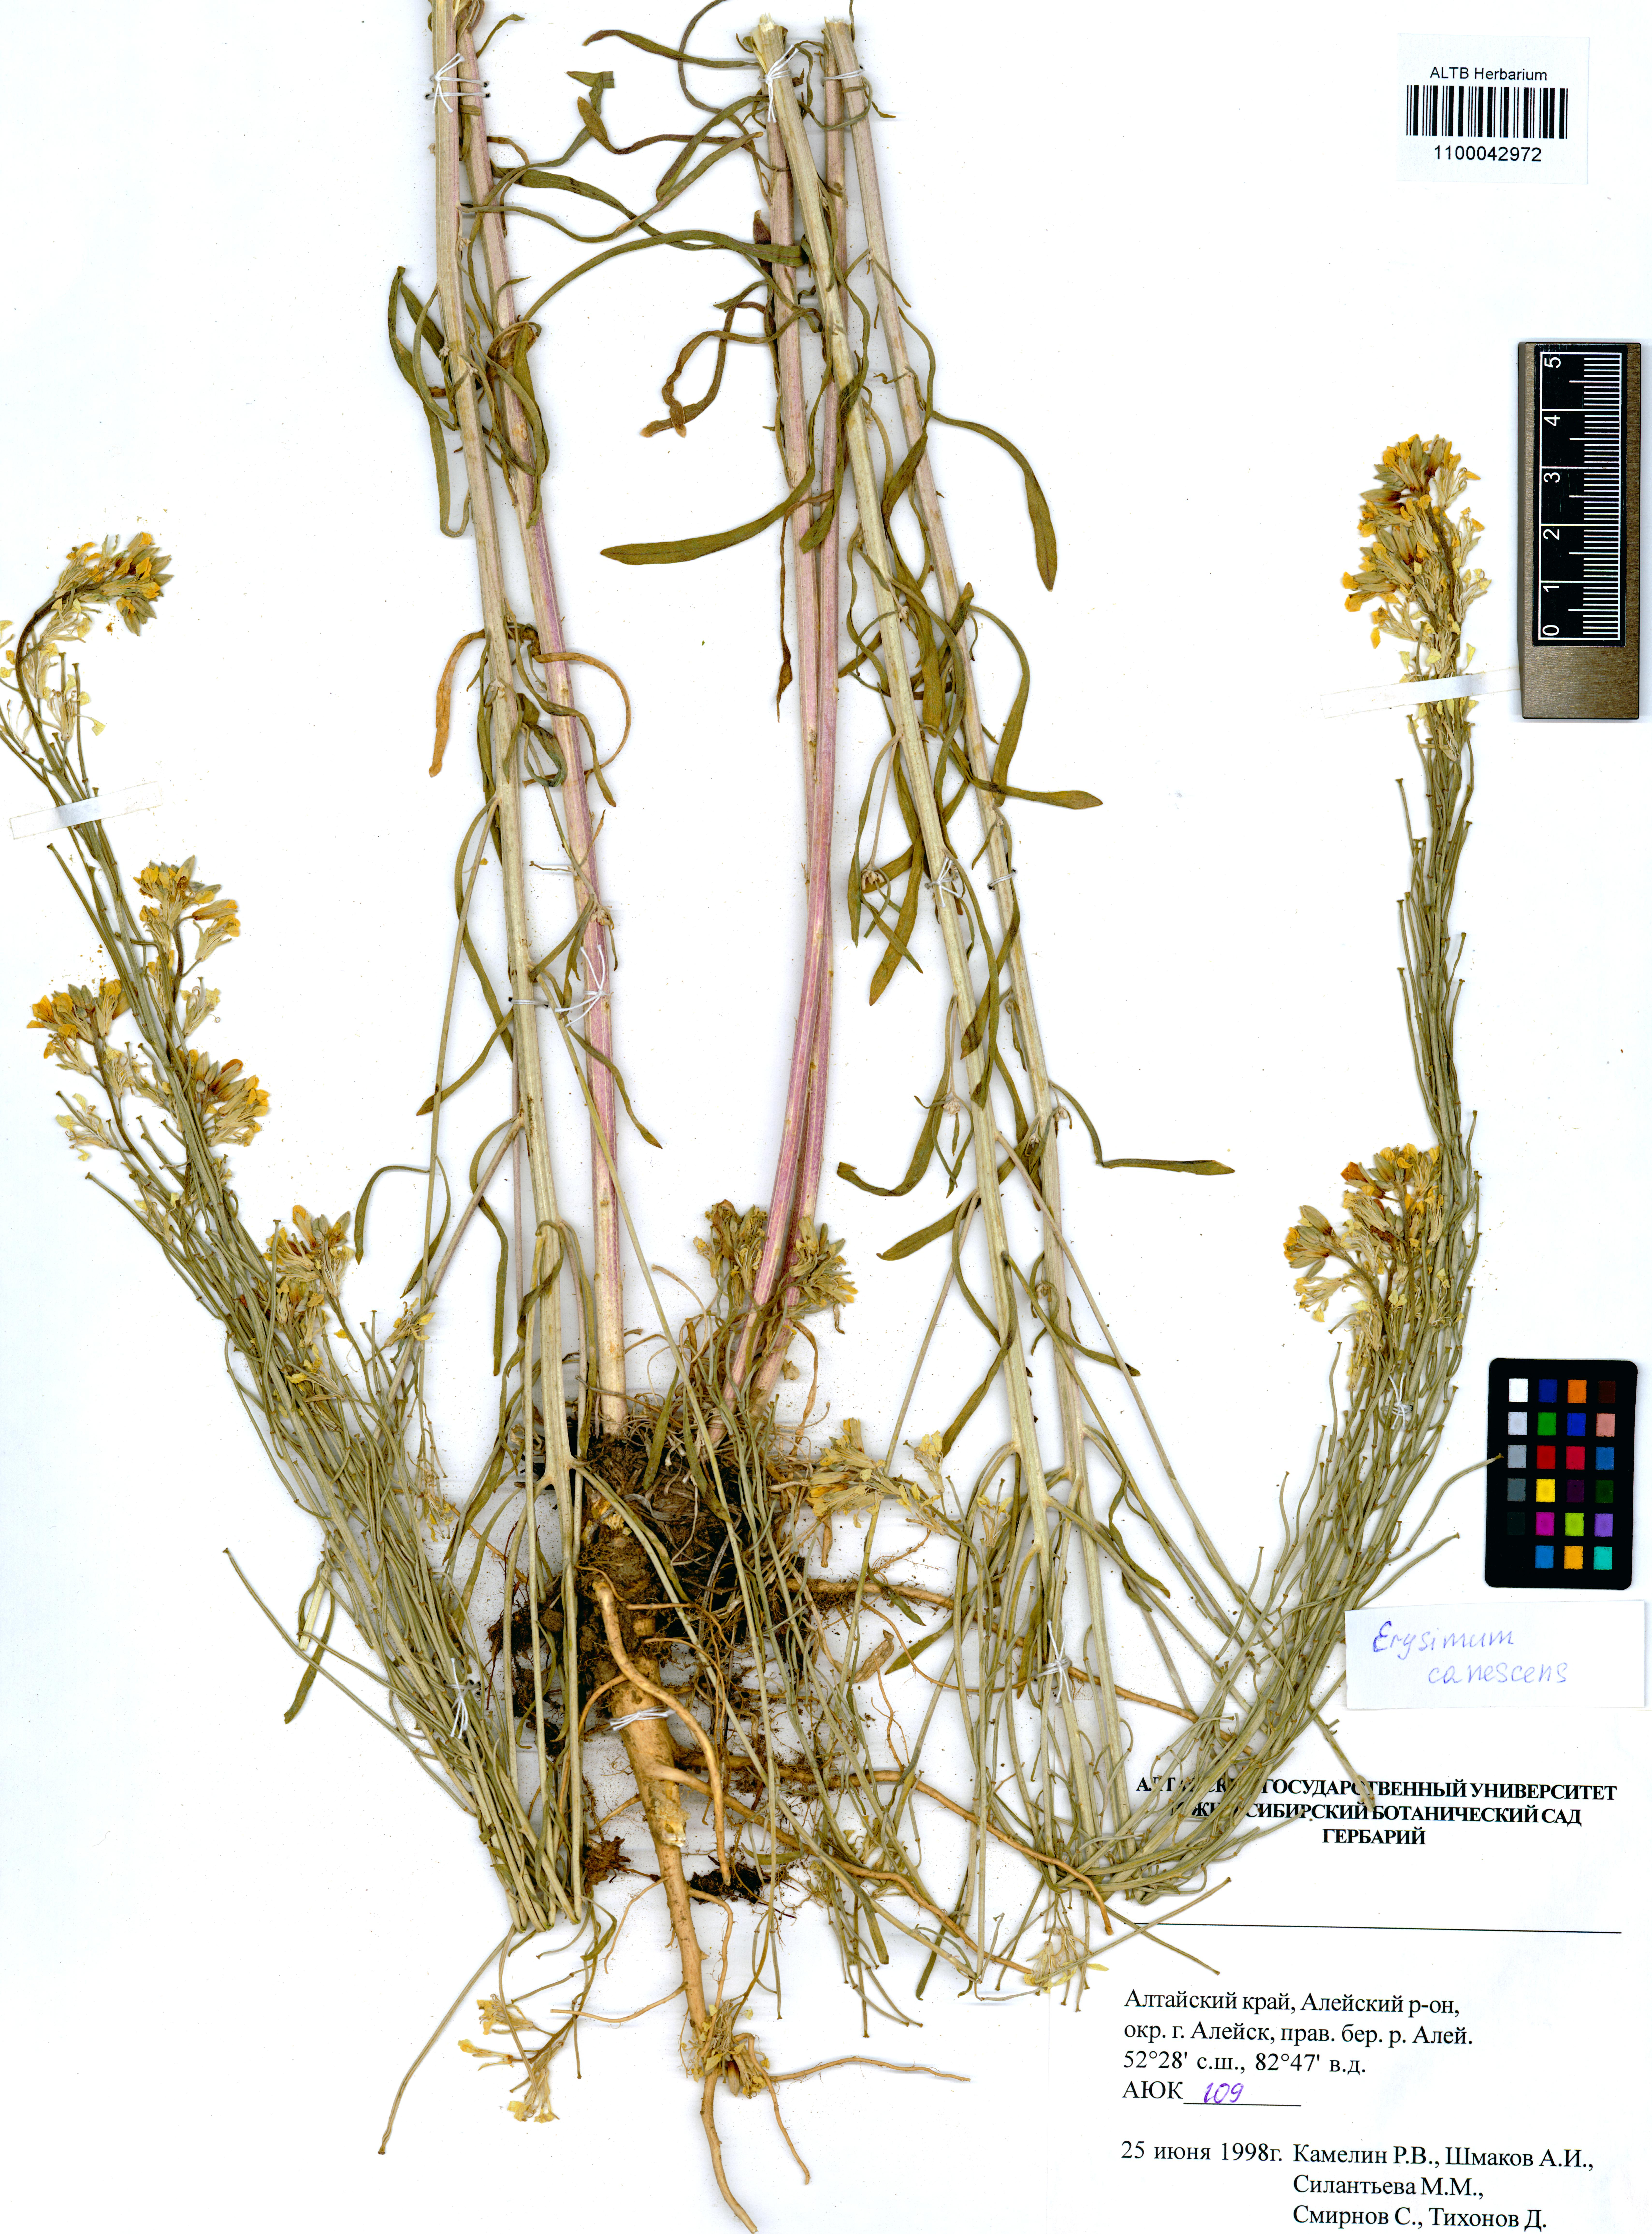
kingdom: Plantae
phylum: Tracheophyta
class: Magnoliopsida
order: Brassicales
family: Brassicaceae
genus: Erysimum
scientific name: Erysimum canescens
